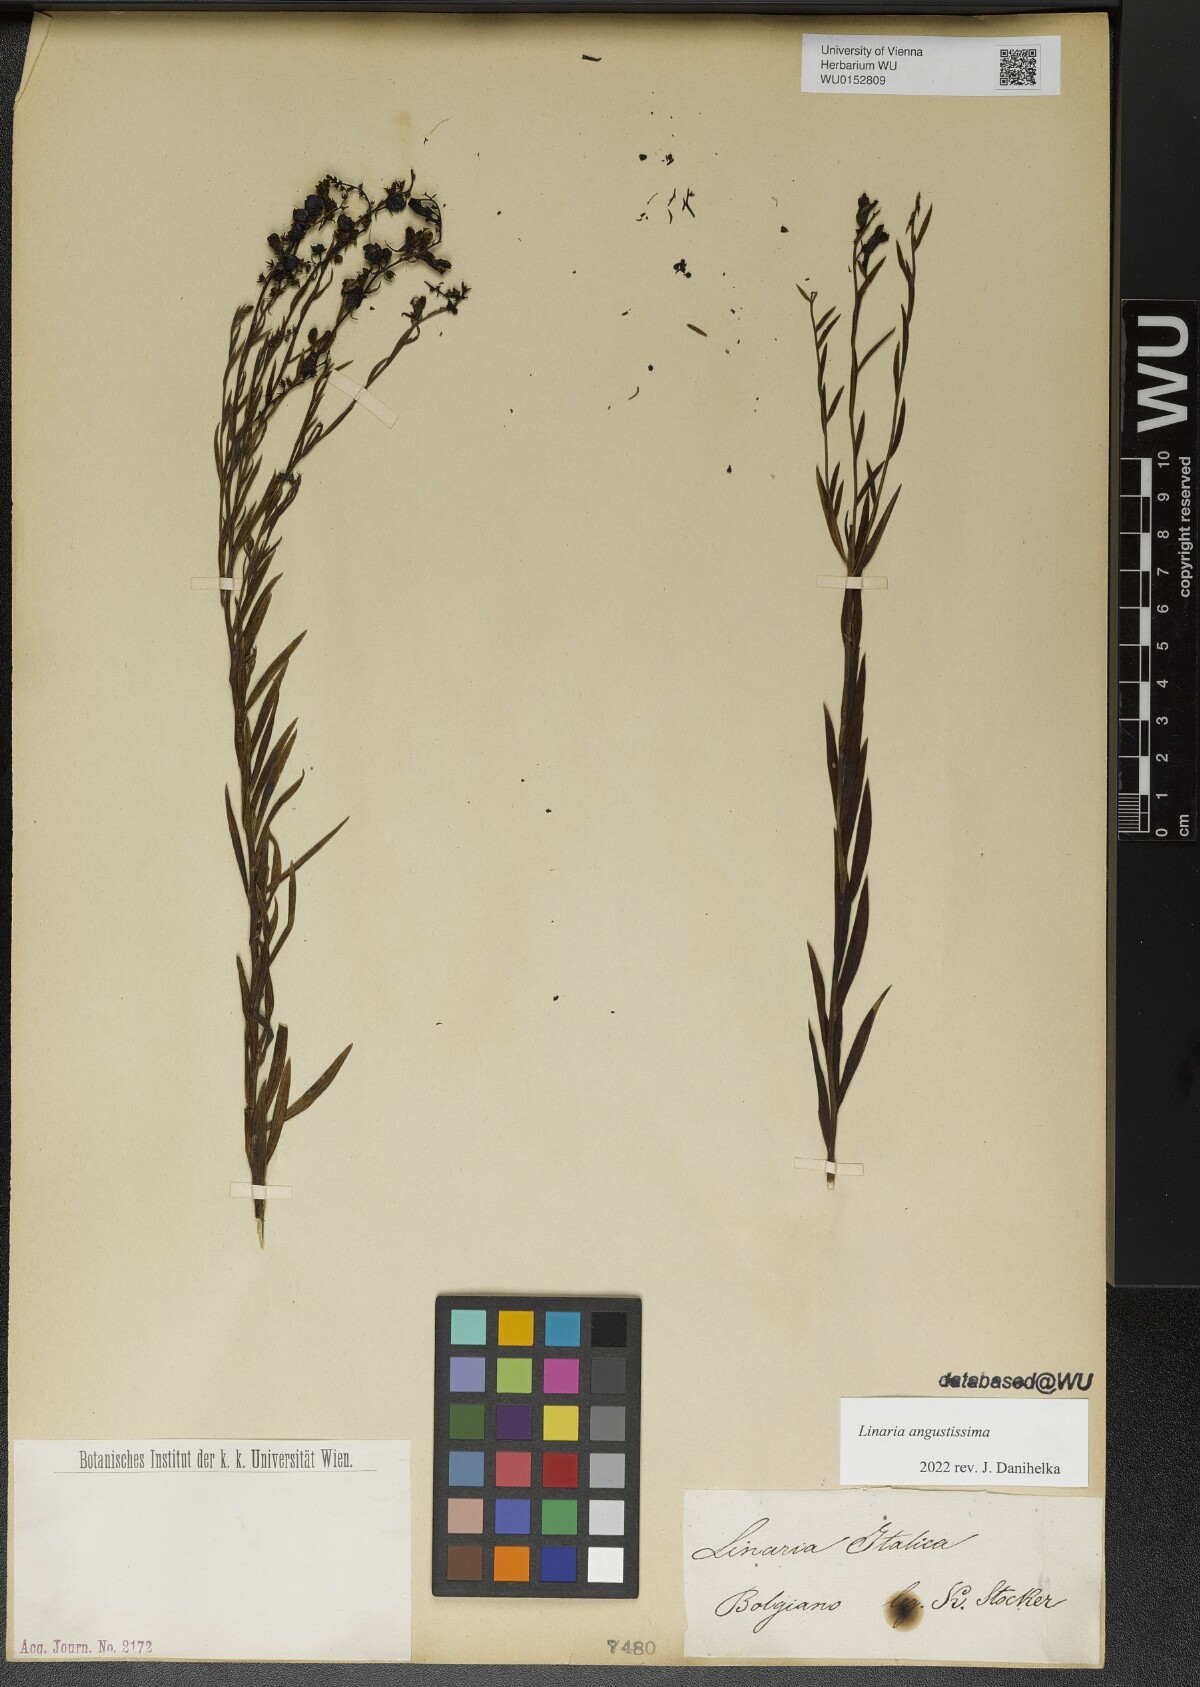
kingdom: Plantae
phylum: Tracheophyta
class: Magnoliopsida
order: Lamiales
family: Plantaginaceae
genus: Linaria
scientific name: Linaria angustissima
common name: Italian toadflax
